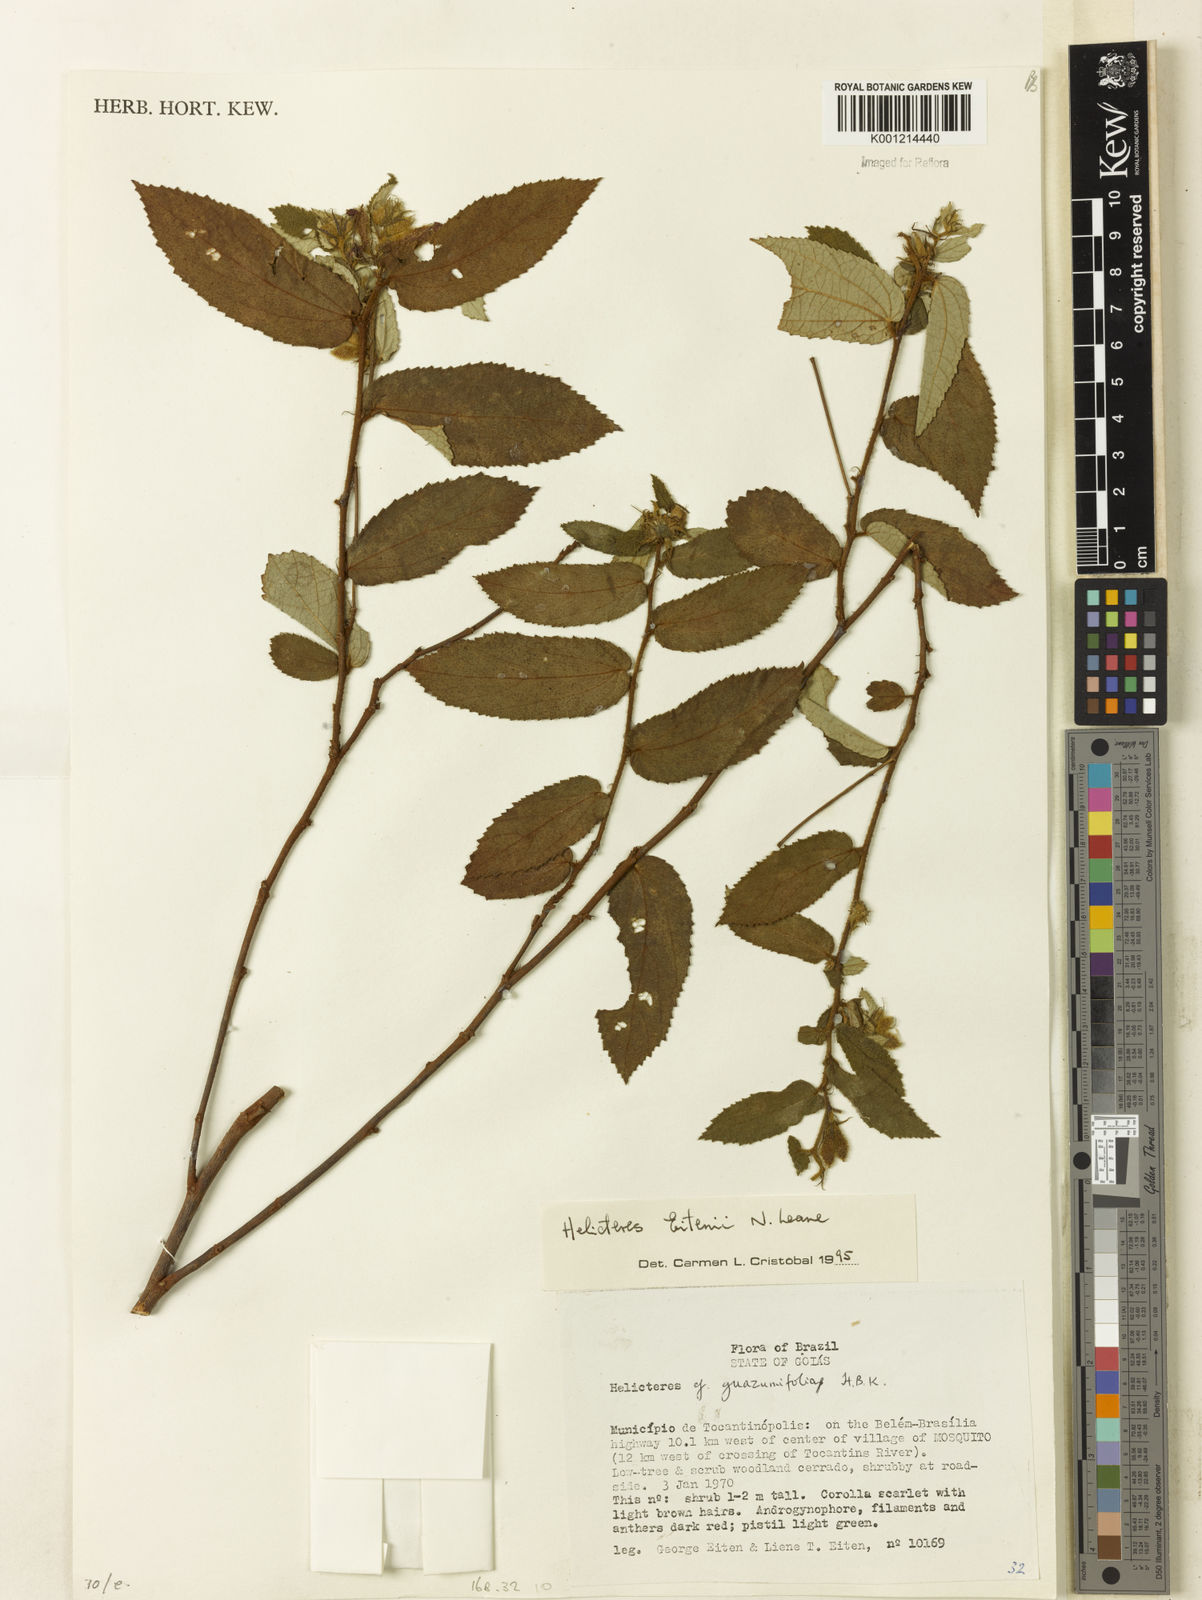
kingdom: Plantae
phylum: Tracheophyta
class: Magnoliopsida
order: Malvales
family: Malvaceae
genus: Helicteres
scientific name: Helicteres eitenii
